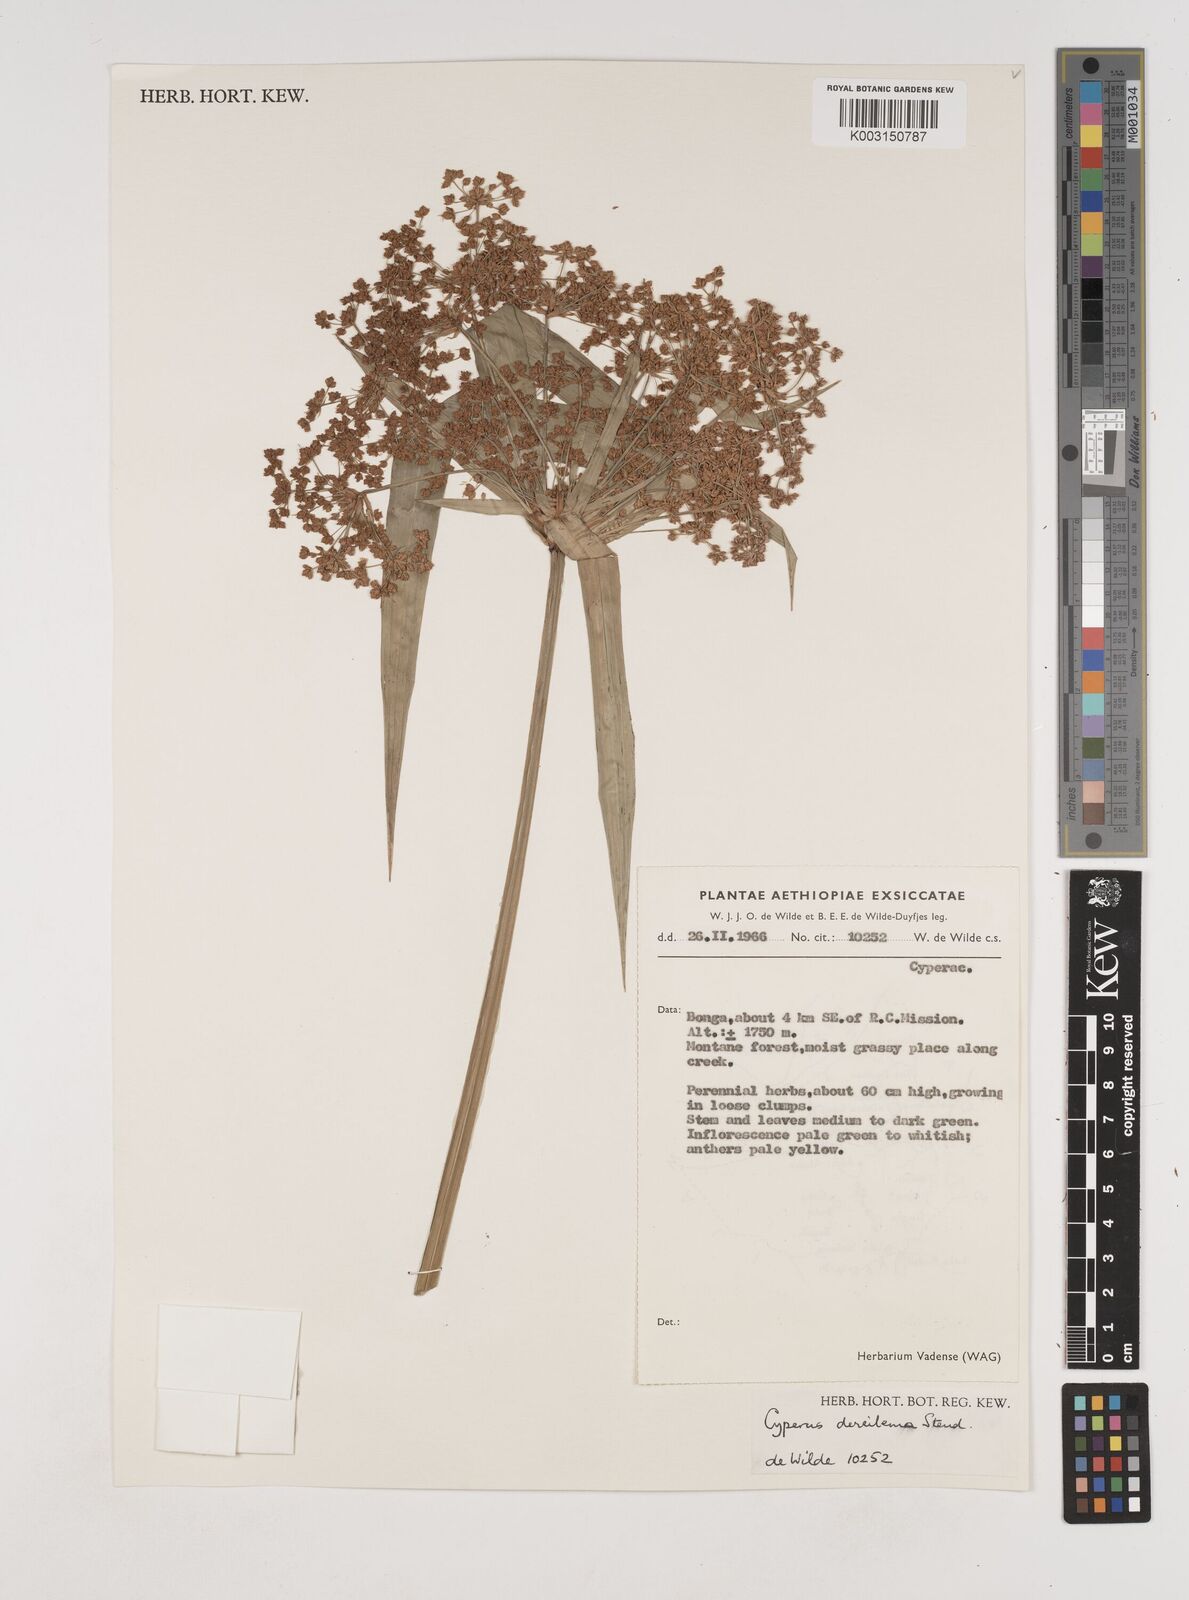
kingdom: Plantae
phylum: Tracheophyta
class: Liliopsida
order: Poales
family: Cyperaceae
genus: Cyperus
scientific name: Cyperus derreilema
